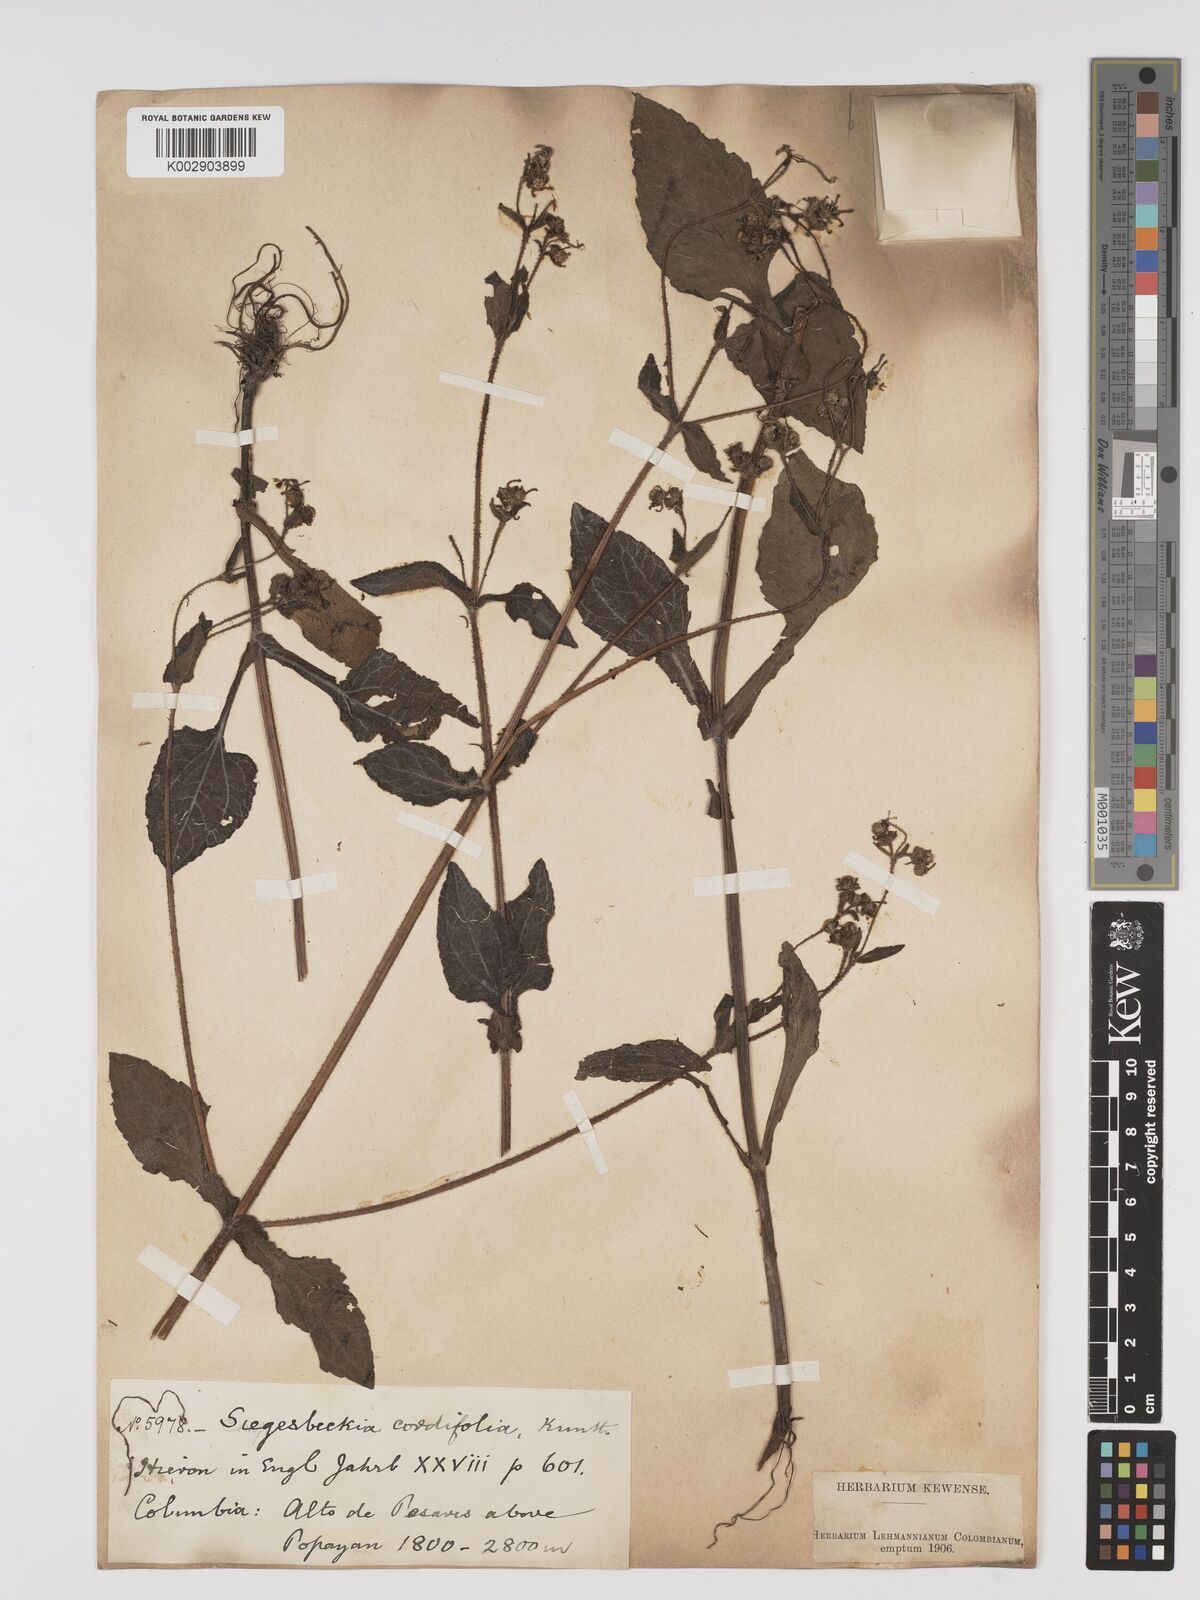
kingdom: Plantae
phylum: Tracheophyta
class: Magnoliopsida
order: Asterales
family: Asteraceae
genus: Sigesbeckia
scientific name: Sigesbeckia jorullensis
